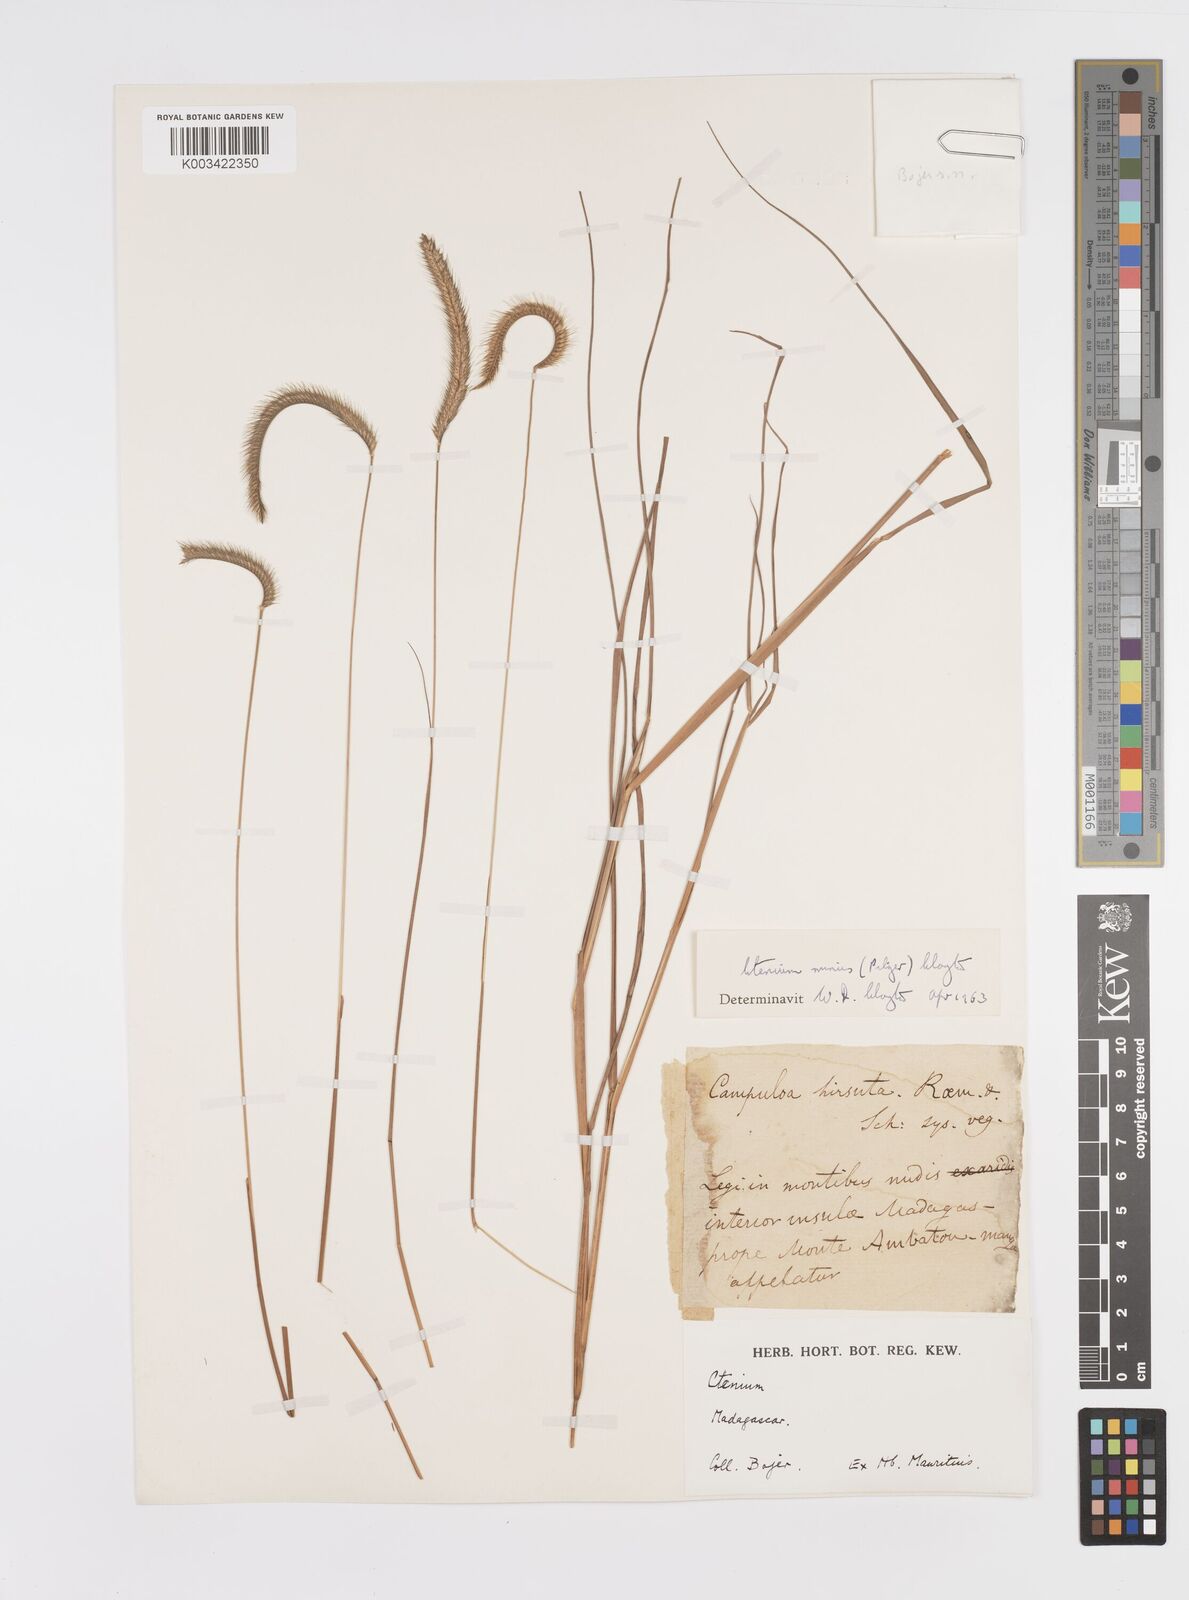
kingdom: Plantae
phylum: Tracheophyta
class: Liliopsida
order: Poales
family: Poaceae
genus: Ctenium
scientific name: Ctenium concinnum
